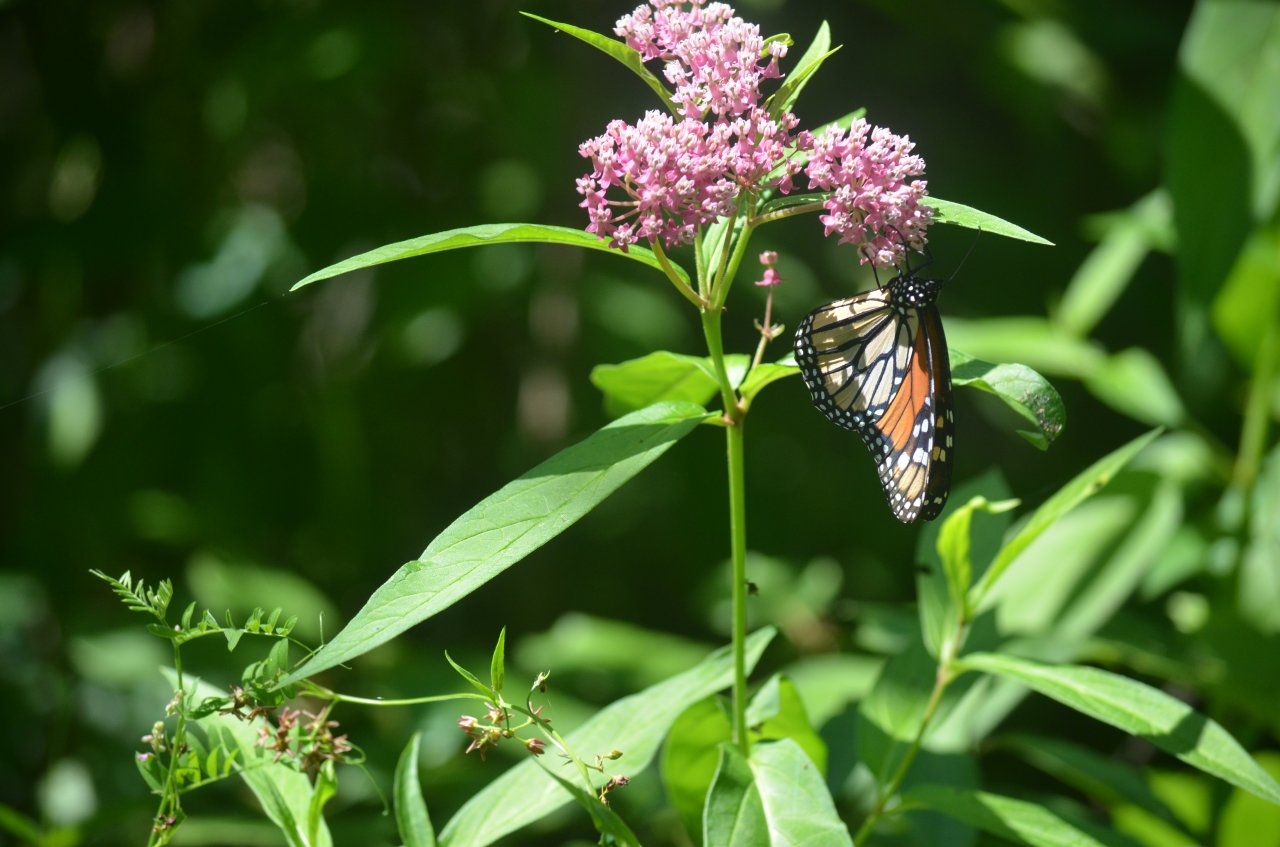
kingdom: Animalia
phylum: Arthropoda
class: Insecta
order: Lepidoptera
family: Nymphalidae
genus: Danaus
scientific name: Danaus plexippus
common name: Monarch
